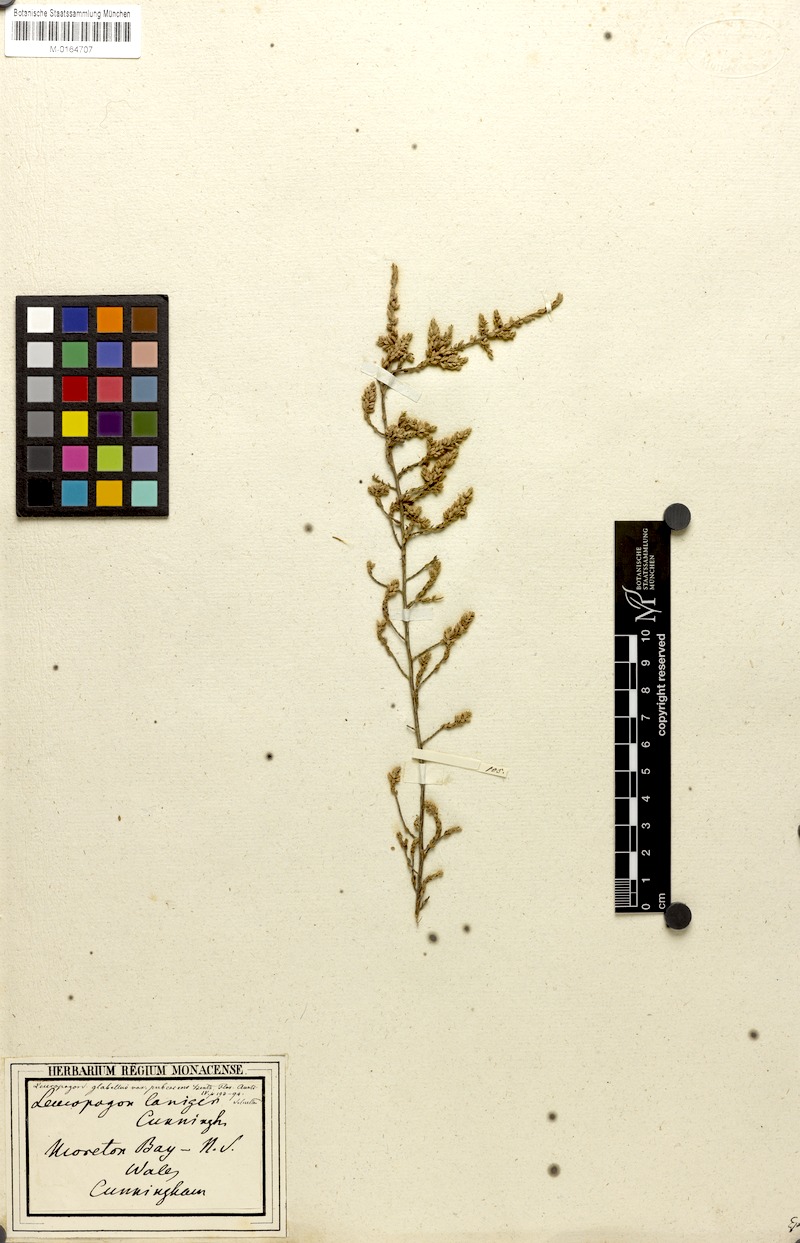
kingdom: Plantae
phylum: Tracheophyta
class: Magnoliopsida
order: Ericales
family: Ericaceae
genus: Leucopogon
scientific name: Leucopogon glabellus
